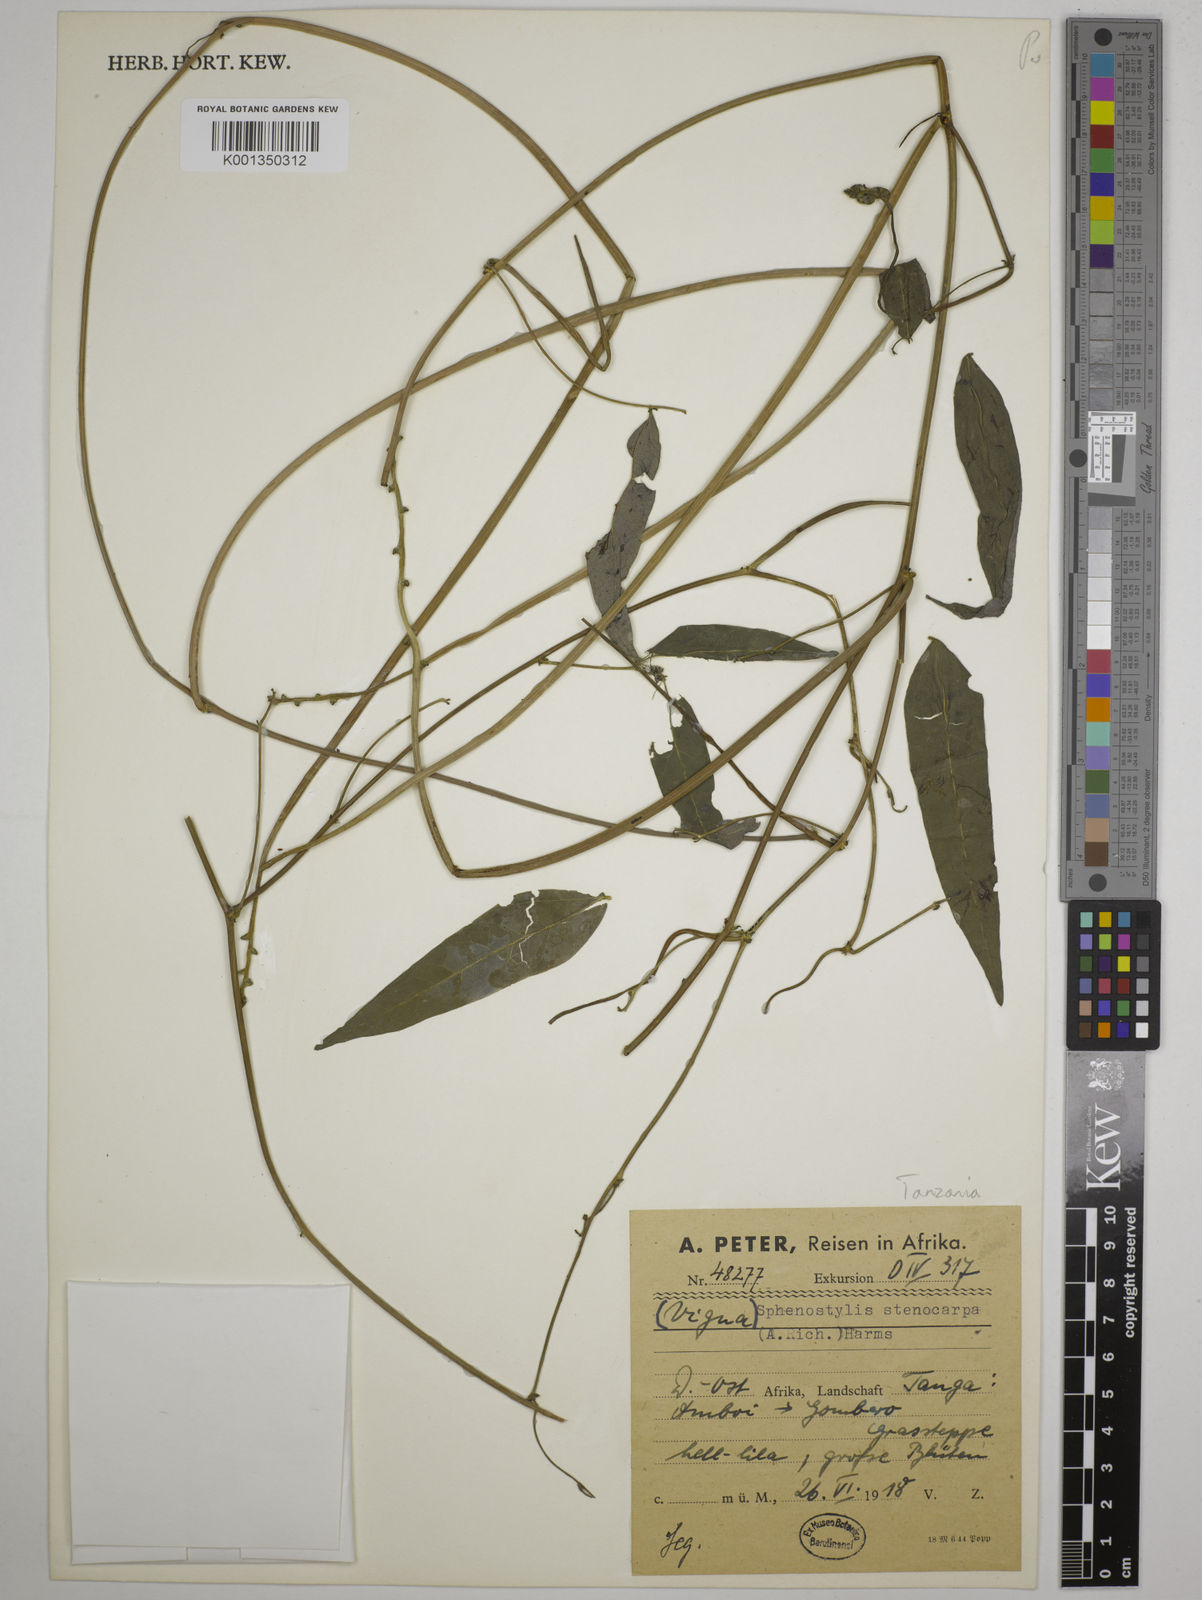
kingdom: Plantae
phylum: Tracheophyta
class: Magnoliopsida
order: Fabales
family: Fabaceae
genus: Sphenostylis
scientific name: Sphenostylis stenocarpa
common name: Yam-pea
